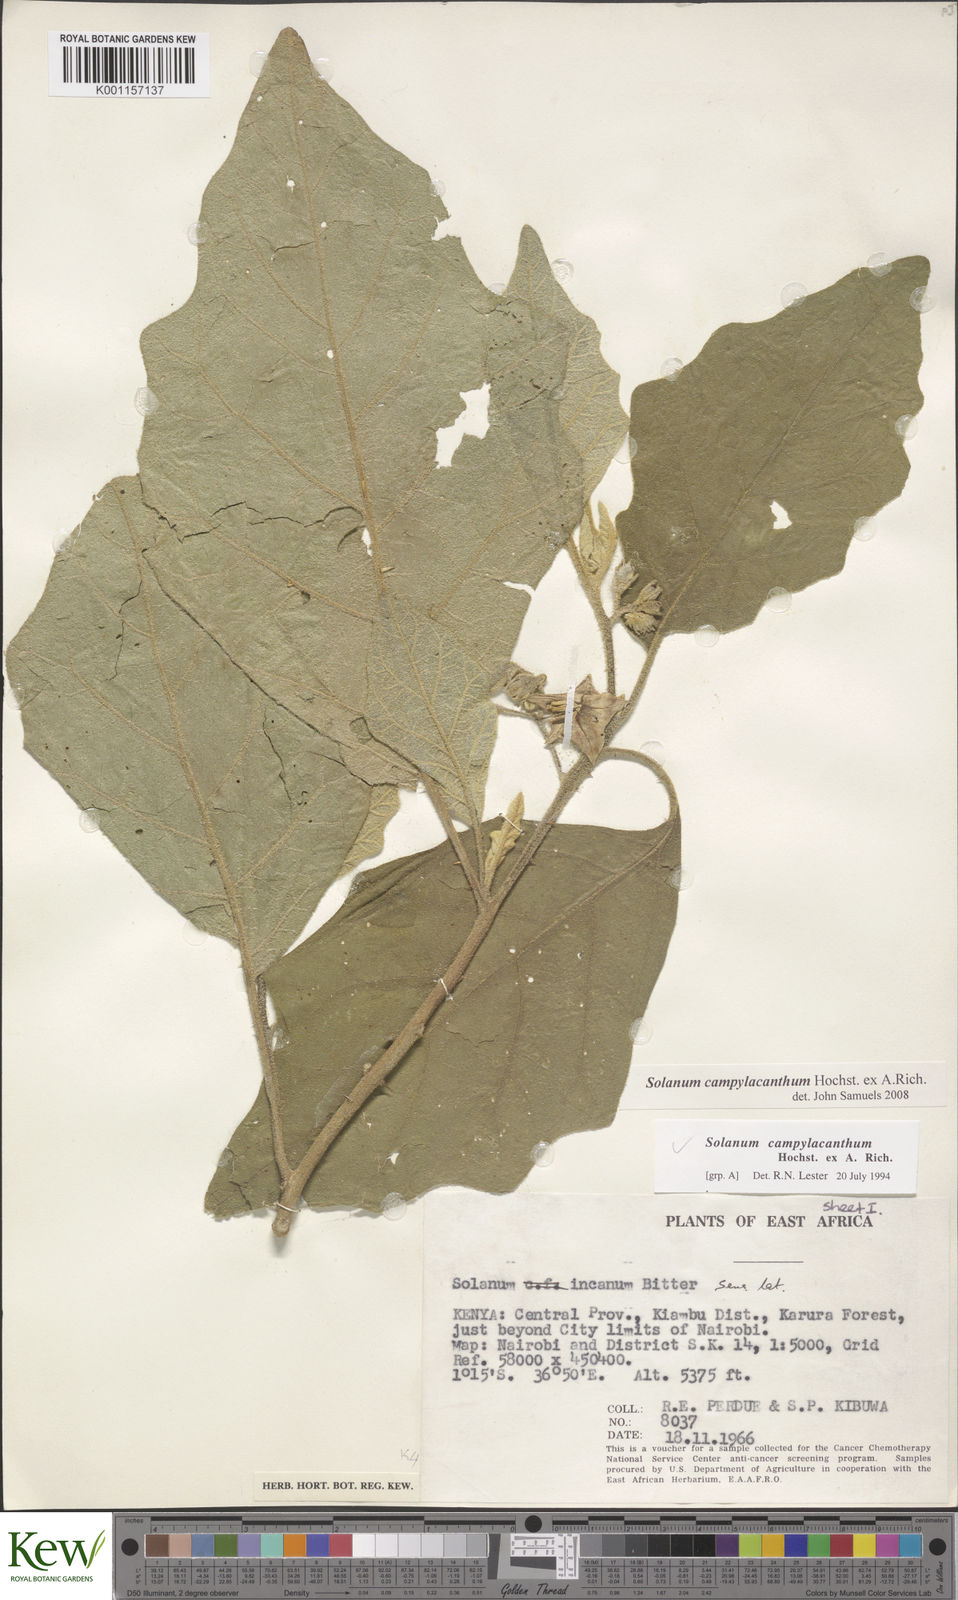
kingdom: Plantae
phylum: Tracheophyta
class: Magnoliopsida
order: Solanales
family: Solanaceae
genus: Solanum
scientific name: Solanum campylacanthum
